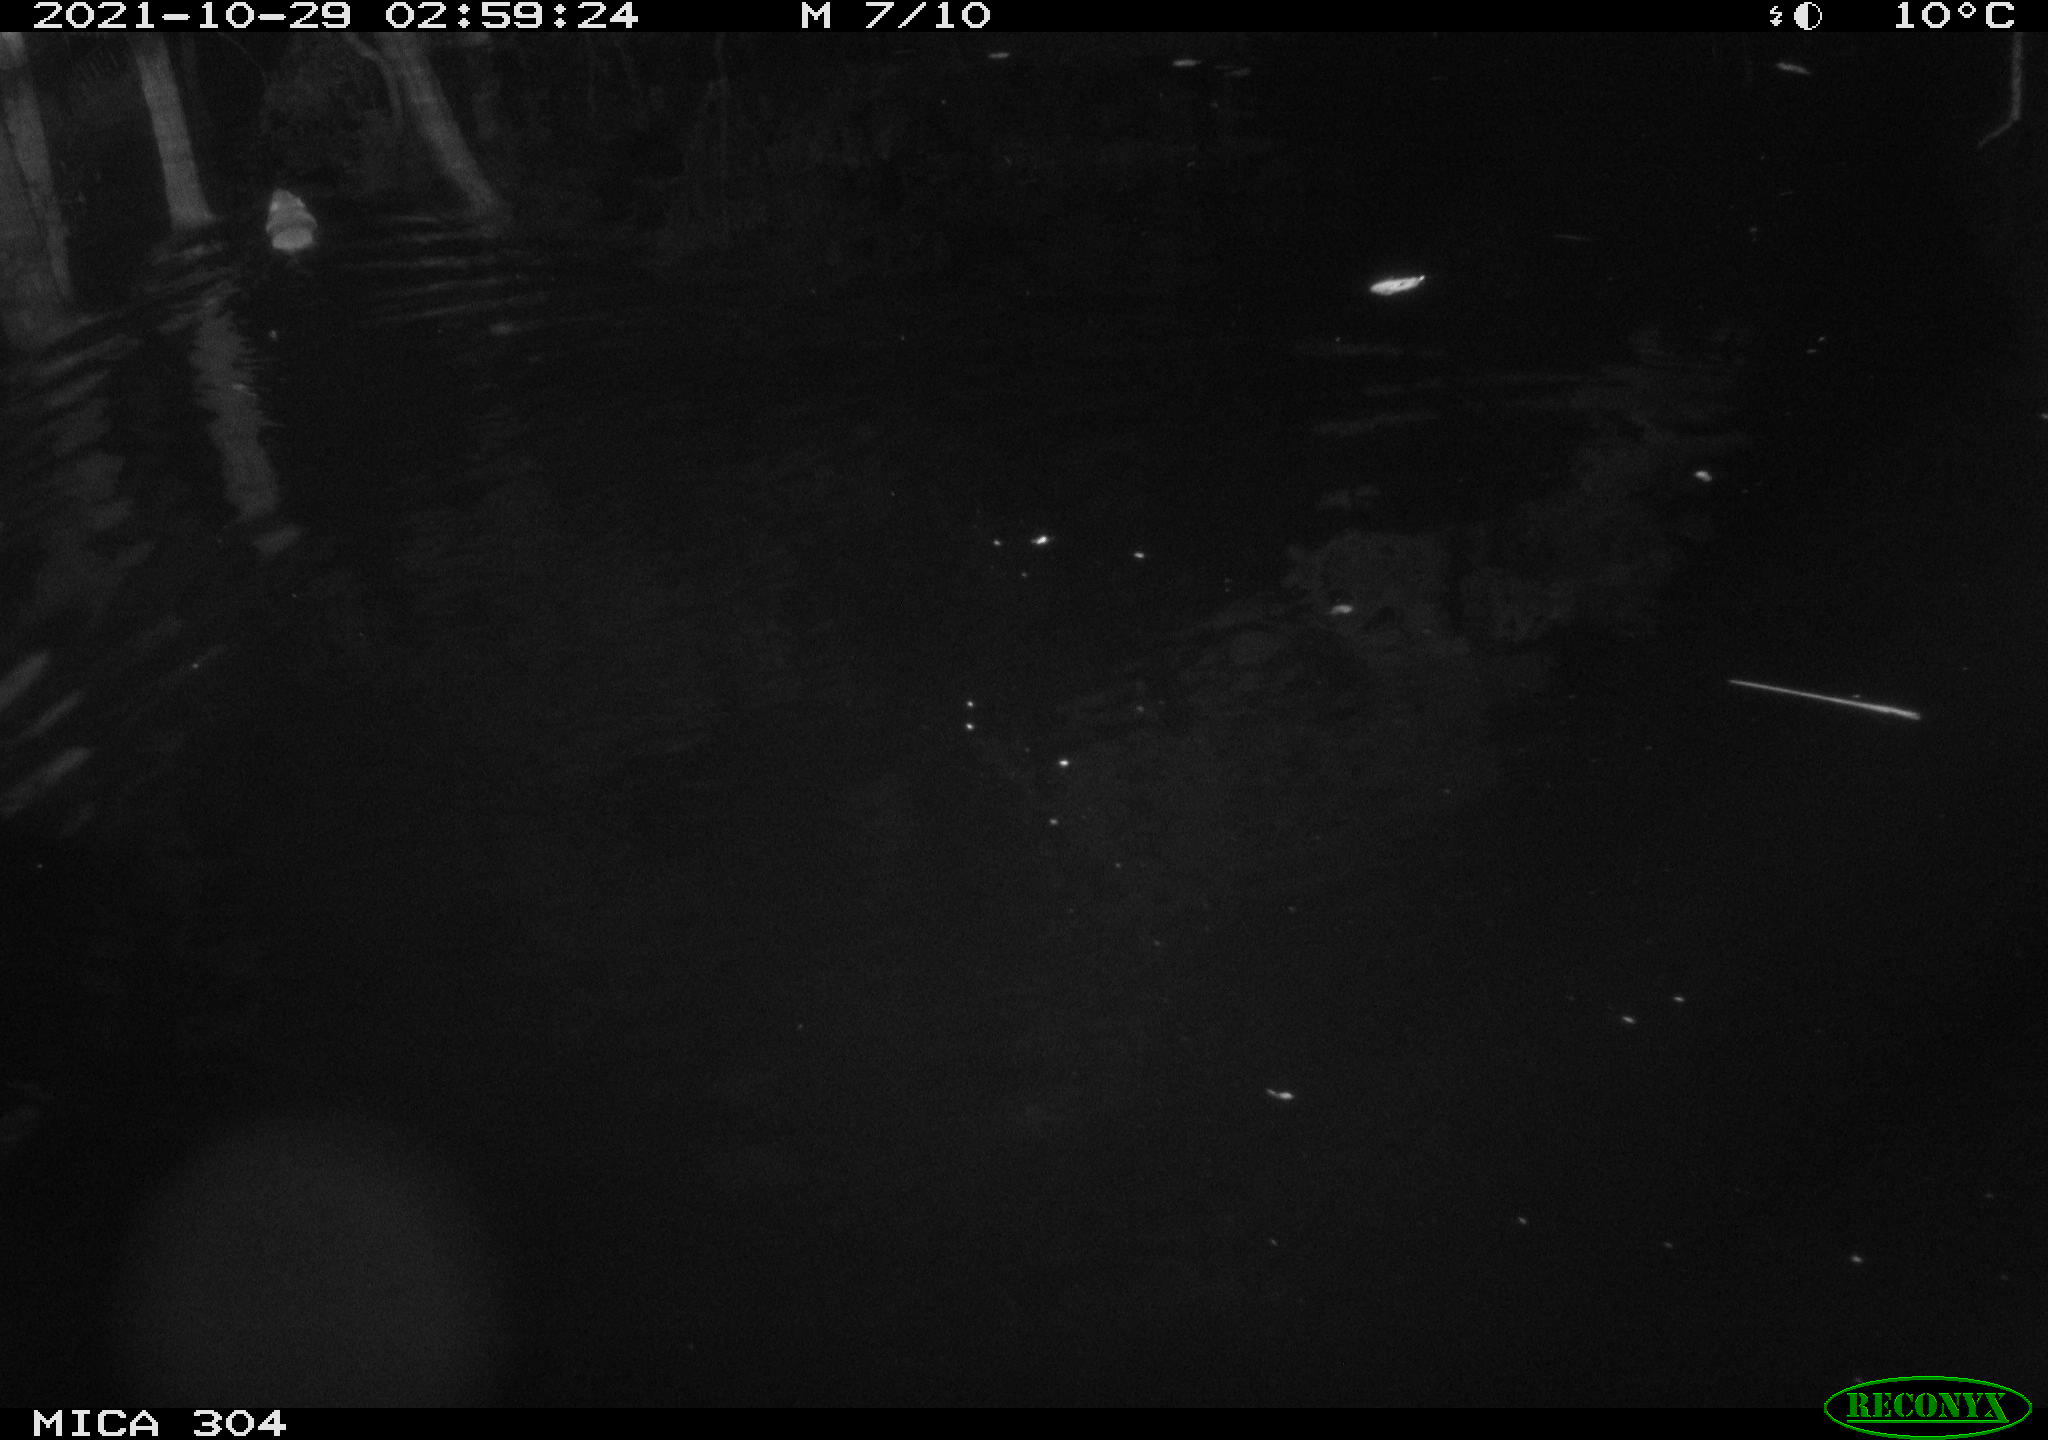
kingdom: Animalia
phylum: Chordata
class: Mammalia
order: Rodentia
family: Muridae
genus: Rattus
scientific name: Rattus norvegicus
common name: Brown rat
